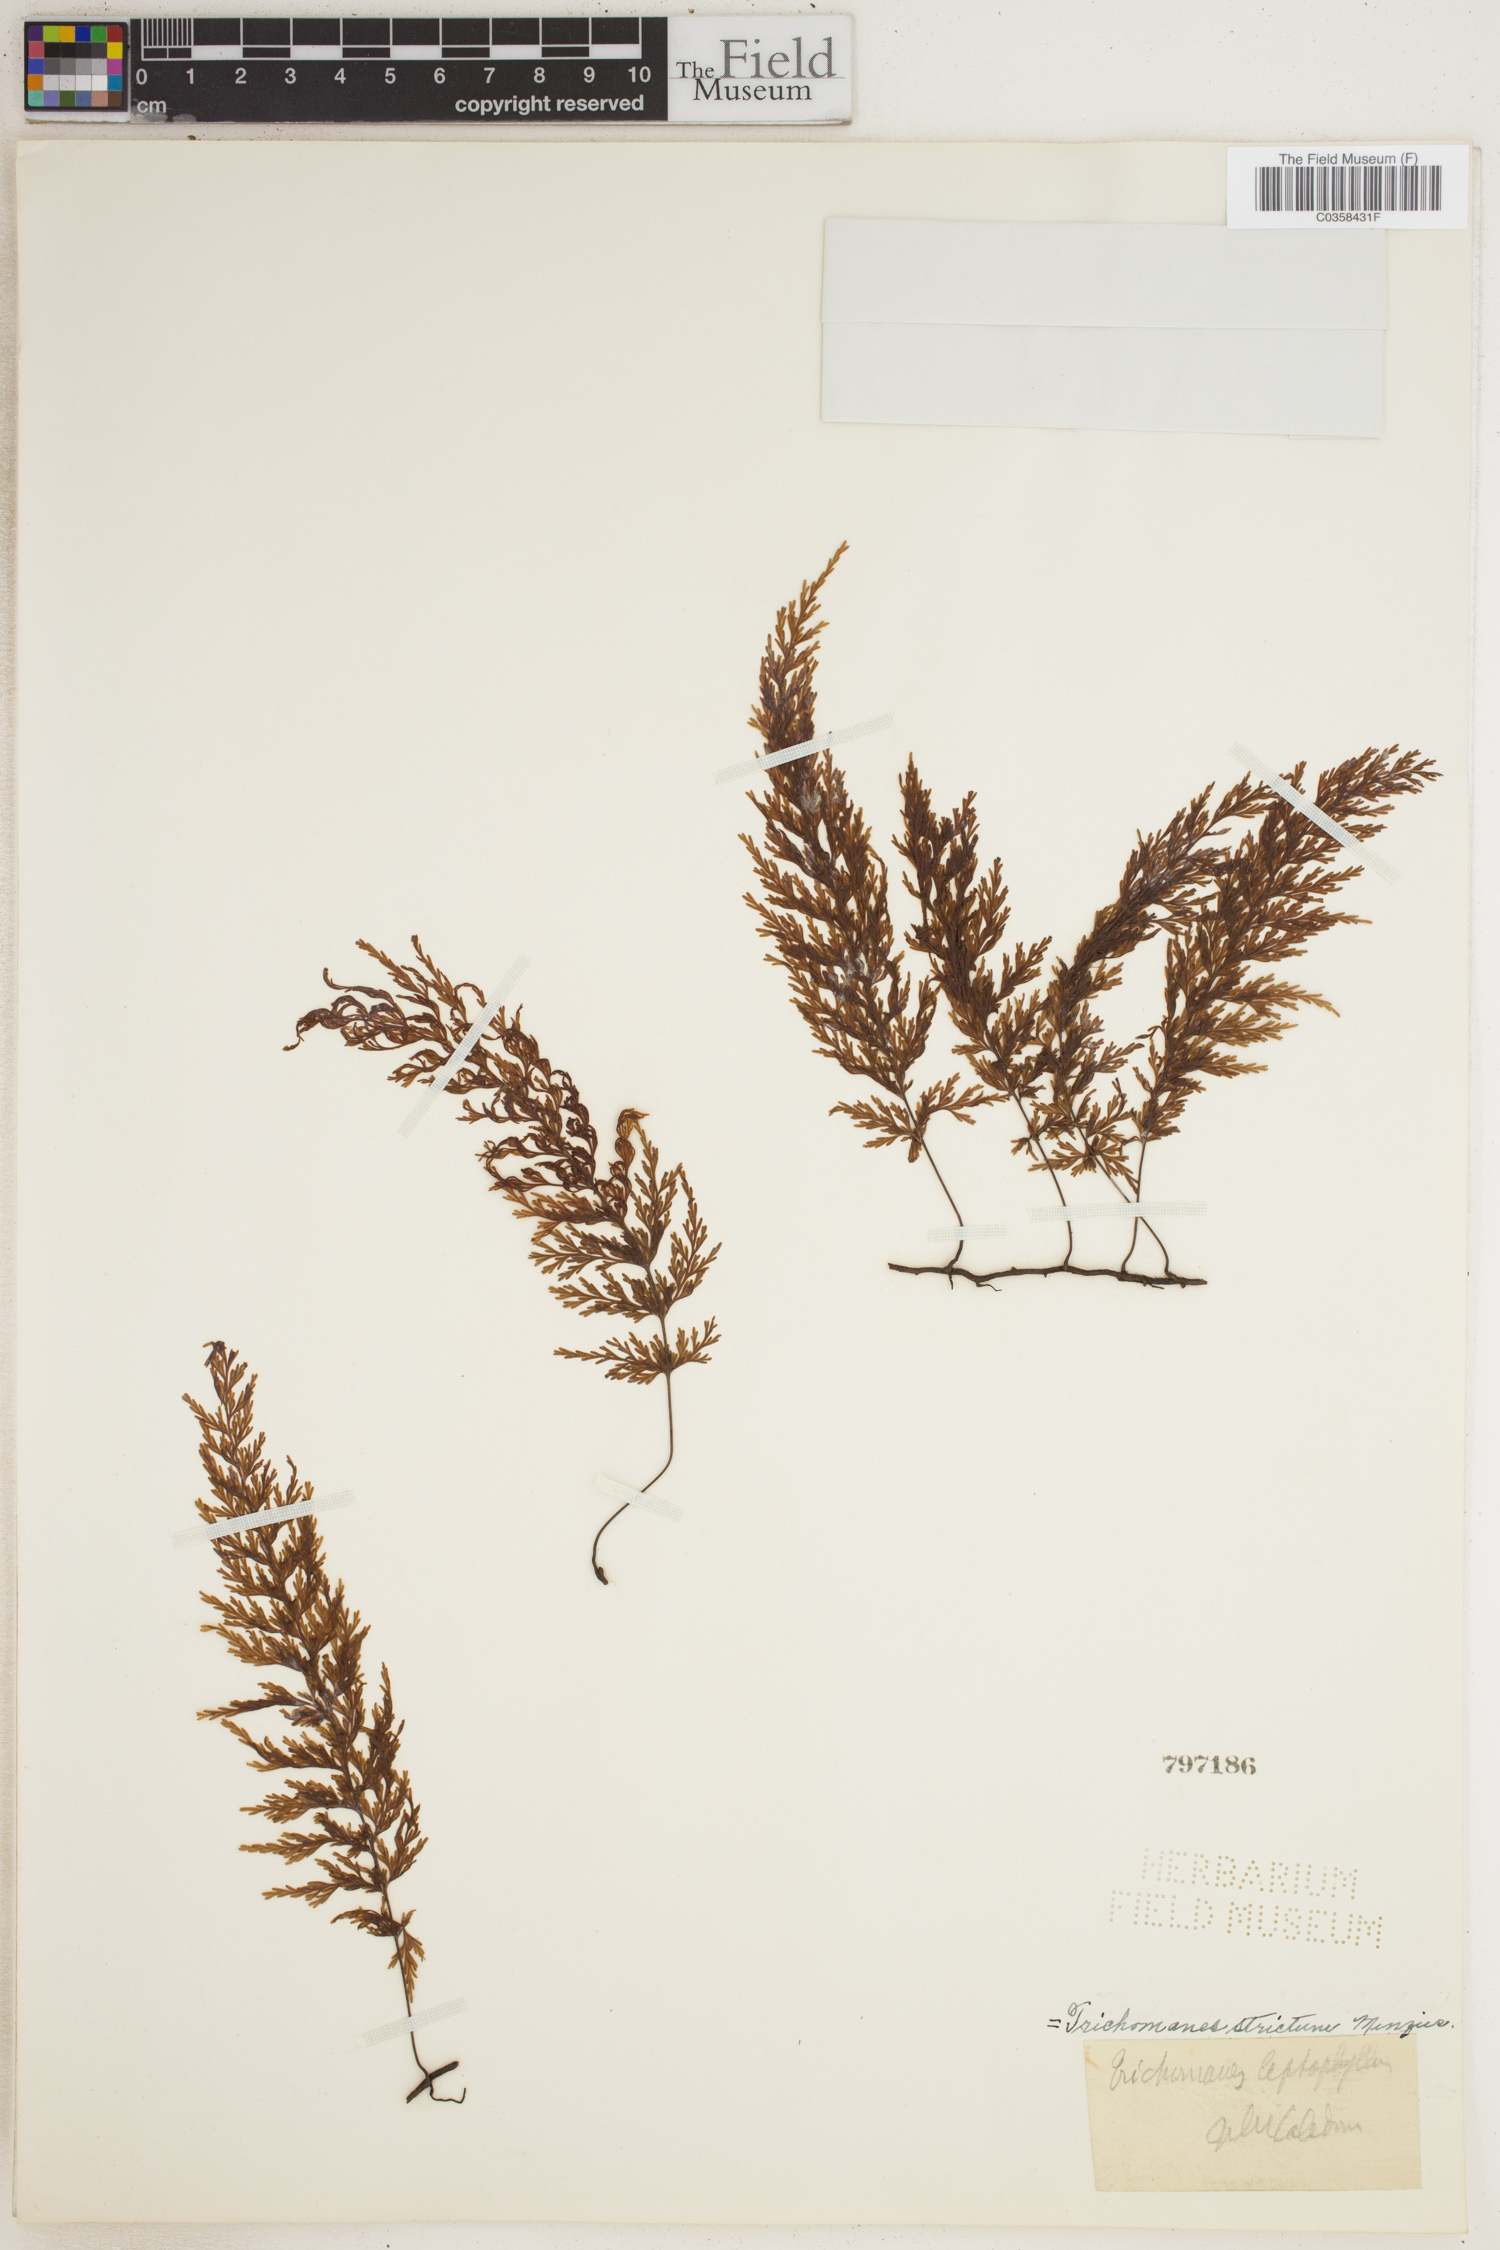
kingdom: Plantae
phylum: Tracheophyta
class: Polypodiopsida
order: Hymenophyllales
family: Hymenophyllaceae
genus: Trichomanes
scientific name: Trichomanes strictum
